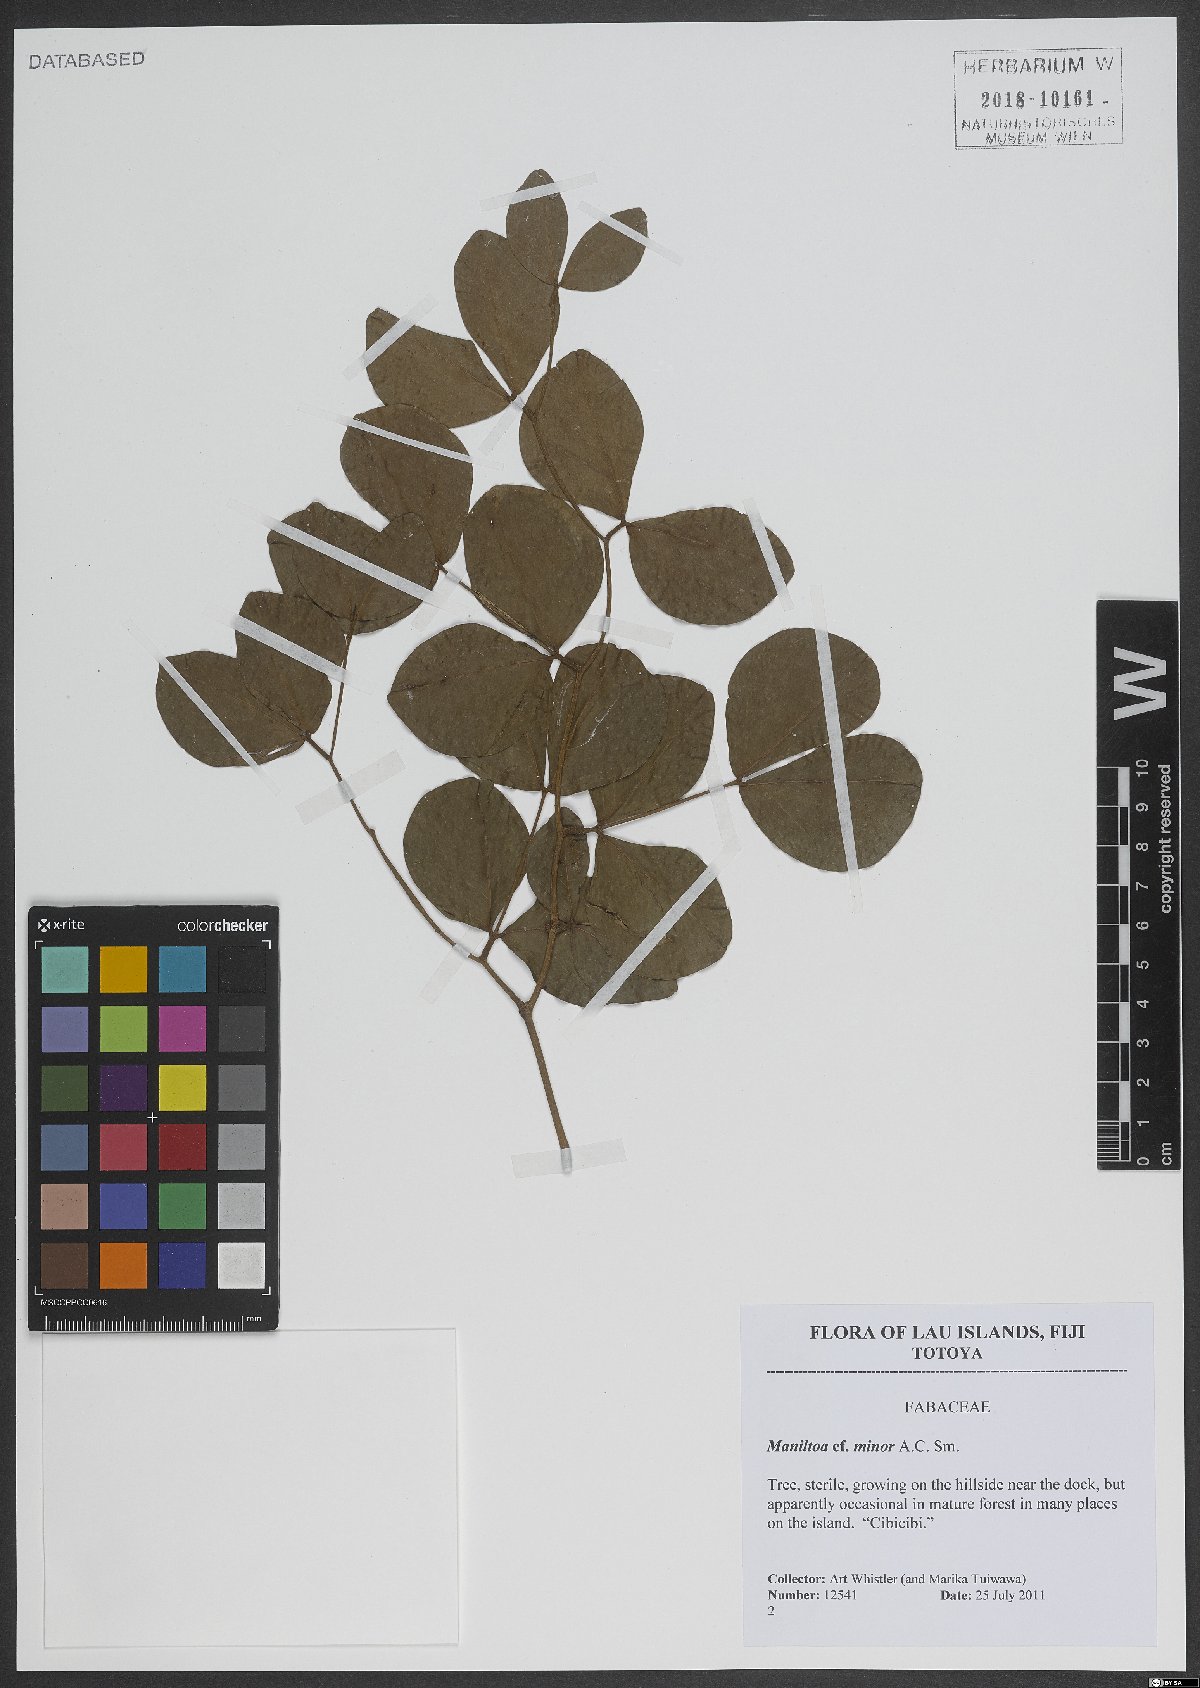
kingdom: Plantae
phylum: Tracheophyta
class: Magnoliopsida
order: Fabales
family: Fabaceae
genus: Cynometra
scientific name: Cynometra minor
